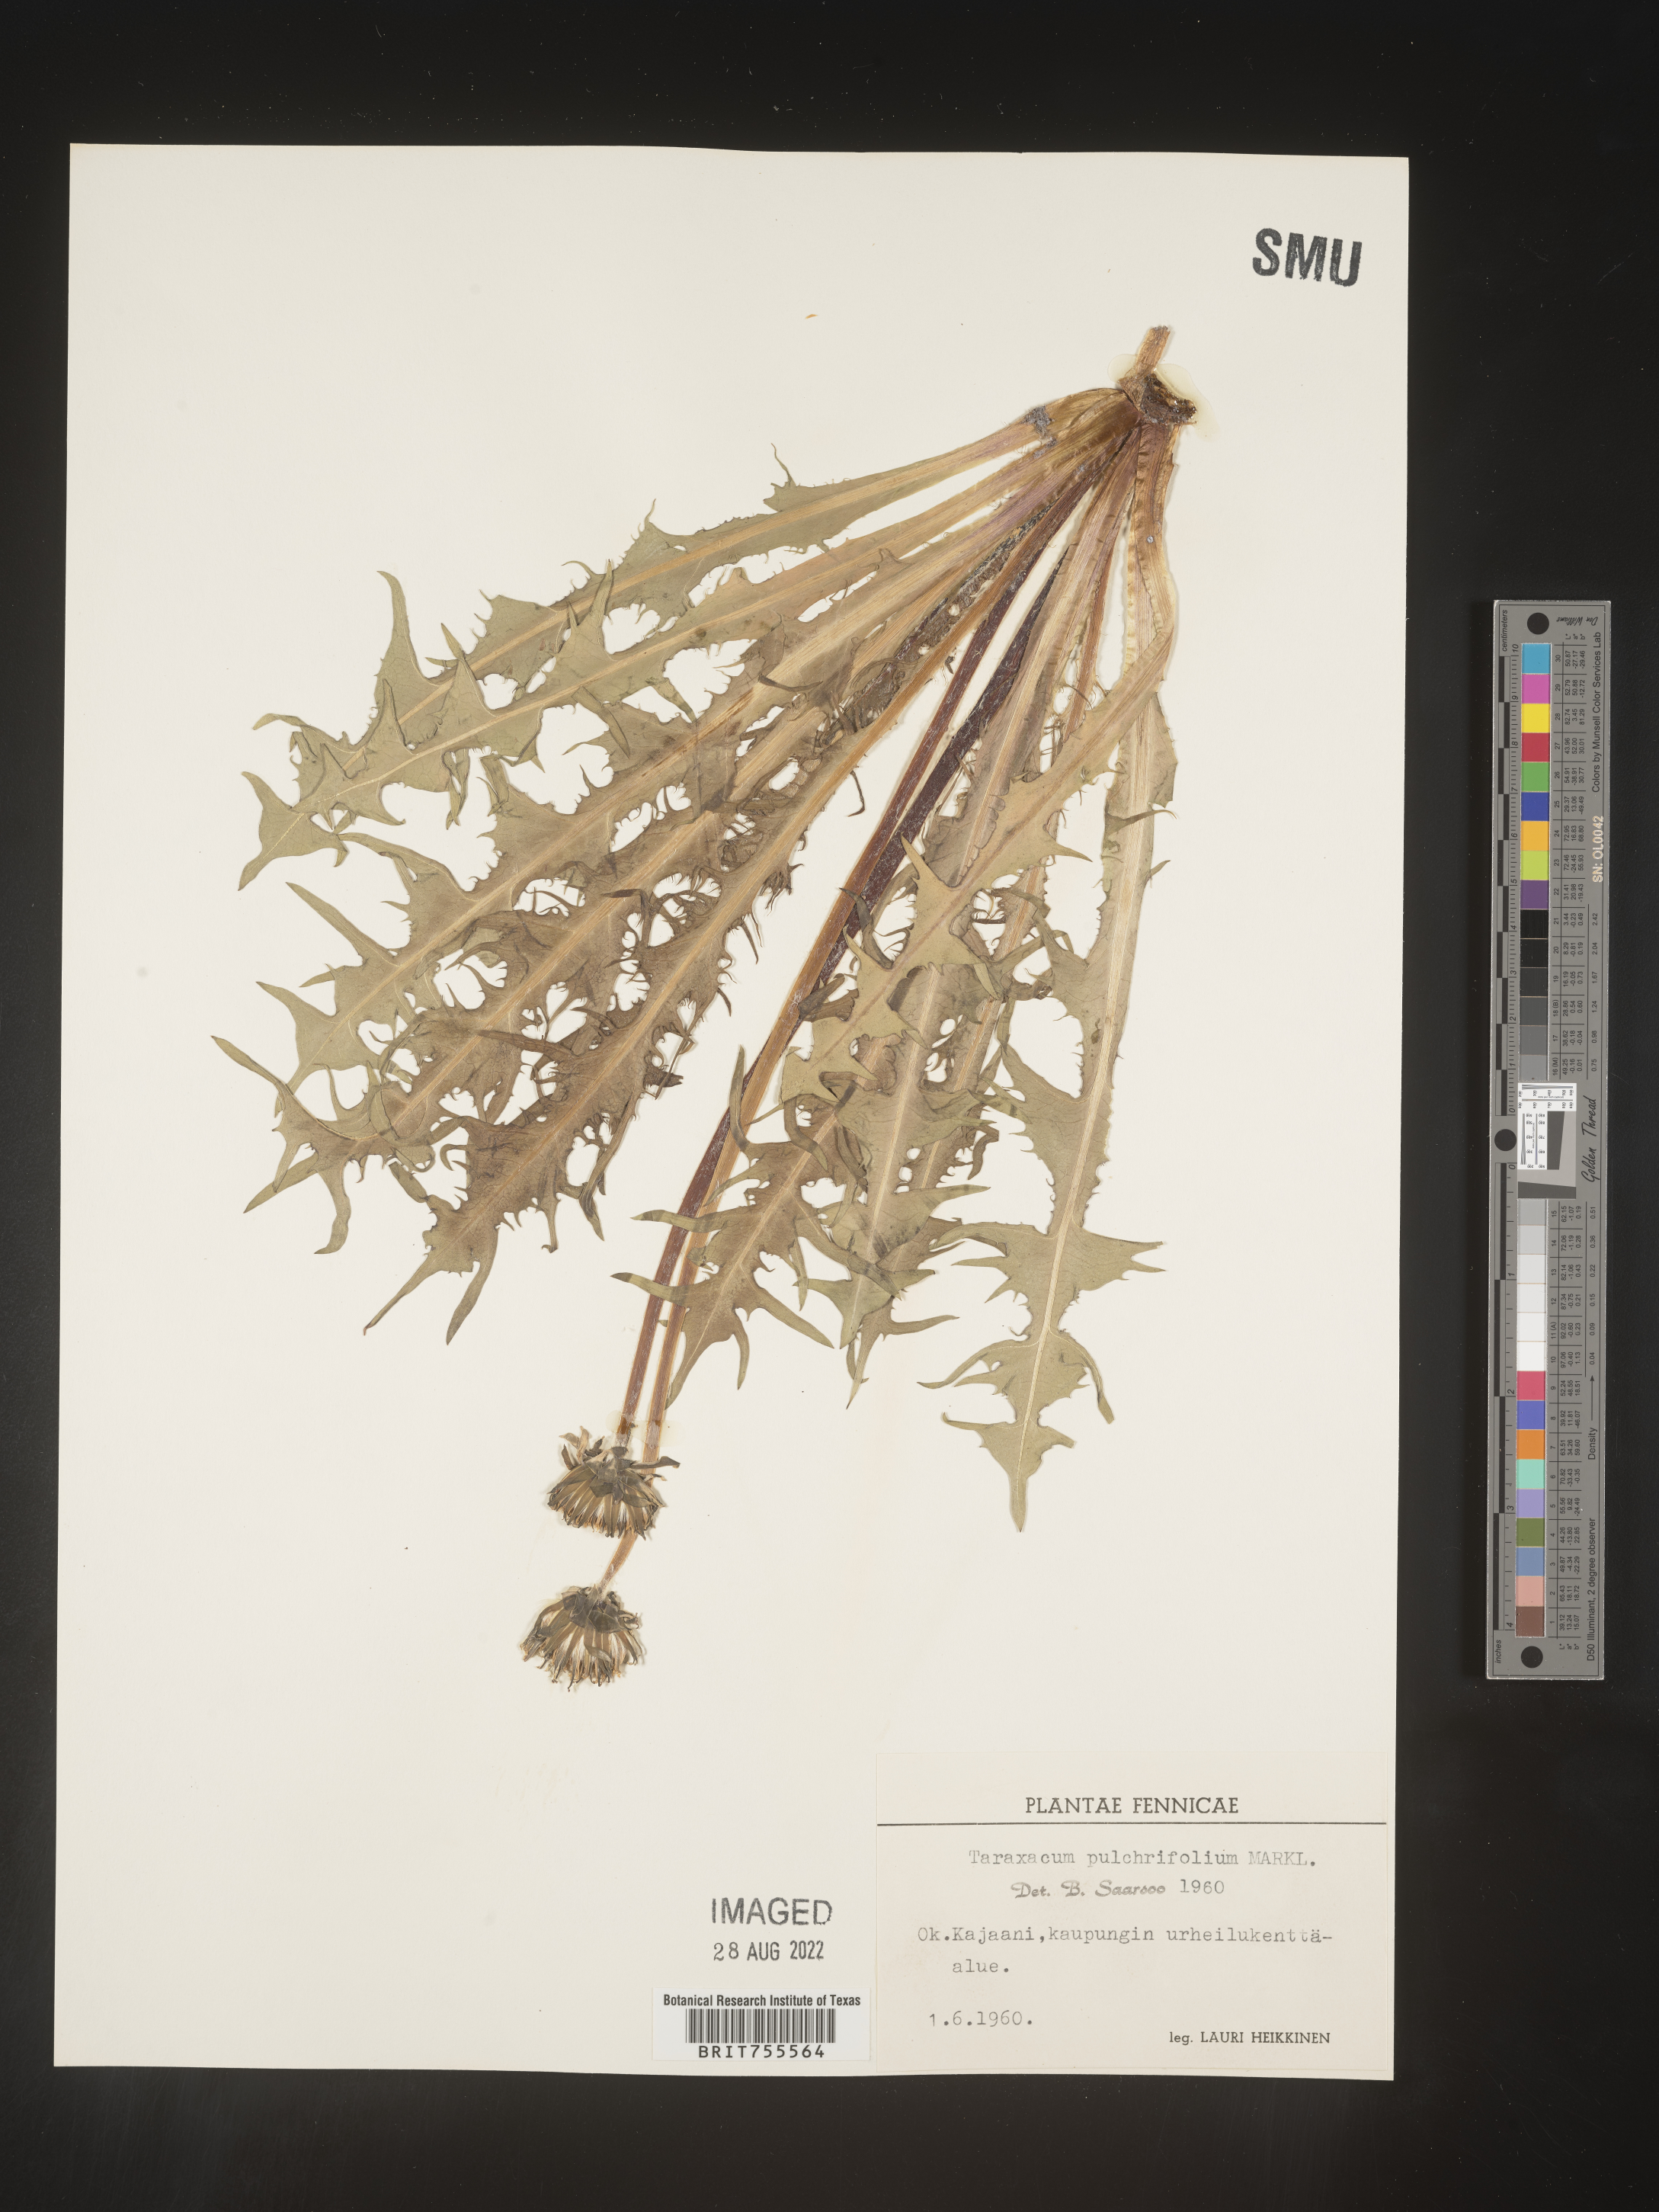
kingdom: Plantae
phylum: Tracheophyta
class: Magnoliopsida
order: Asterales
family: Asteraceae
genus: Taraxacum
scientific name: Taraxacum
